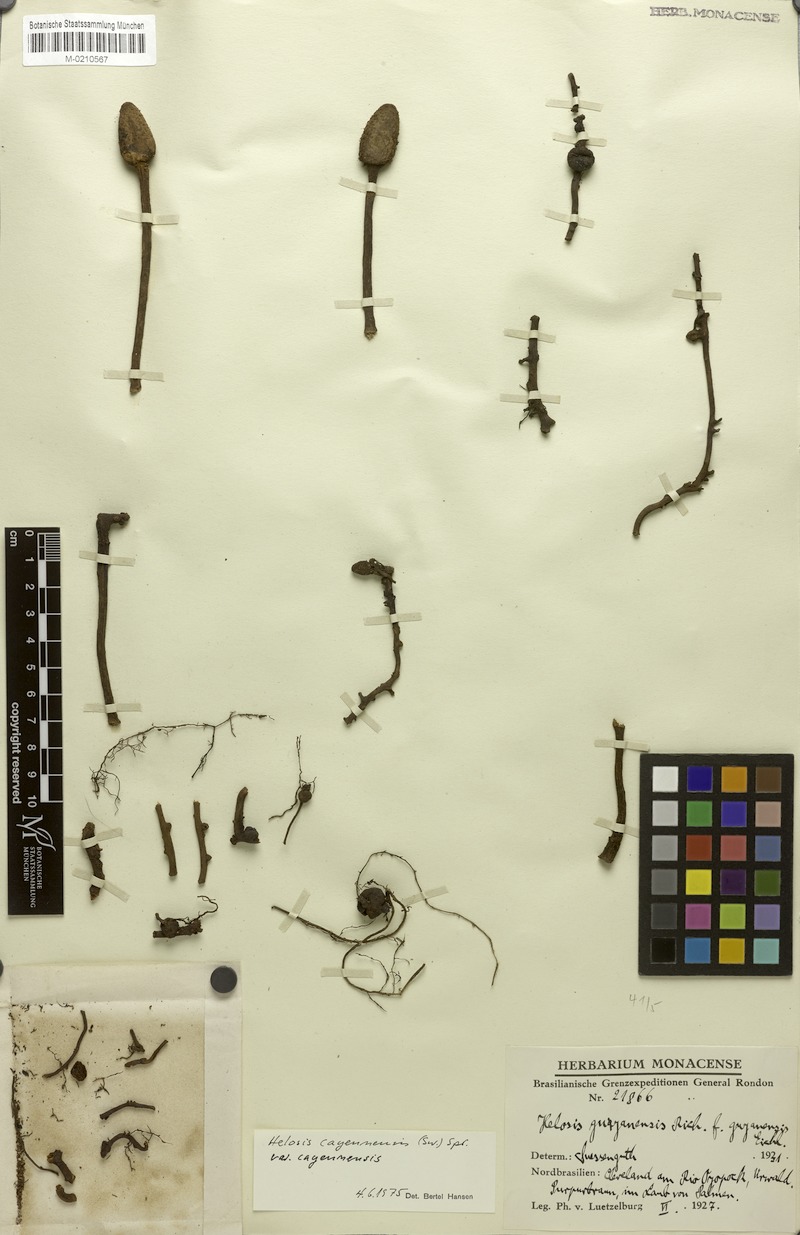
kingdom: Plantae
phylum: Tracheophyta
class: Magnoliopsida
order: Santalales
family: Balanophoraceae
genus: Helosis
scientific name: Helosis cayennensis
